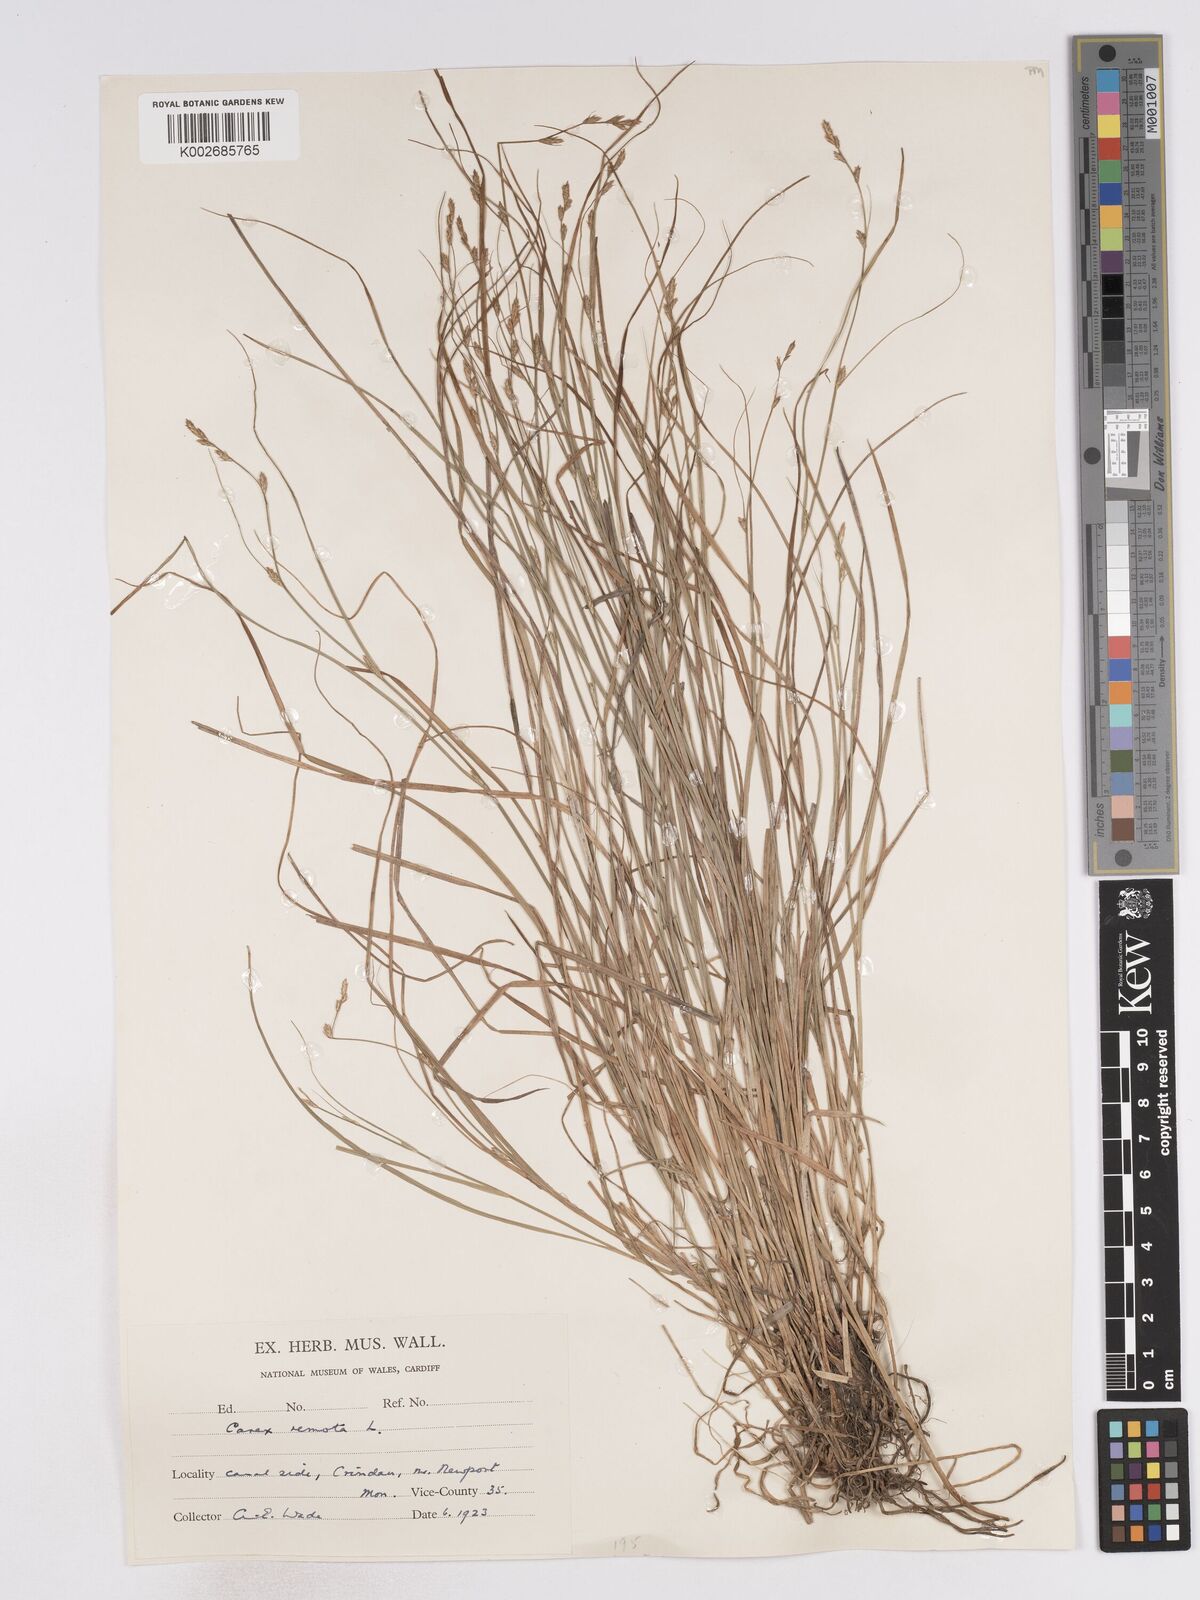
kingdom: Plantae
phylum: Tracheophyta
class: Liliopsida
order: Poales
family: Cyperaceae
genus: Carex
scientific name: Carex remota
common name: Remote sedge
